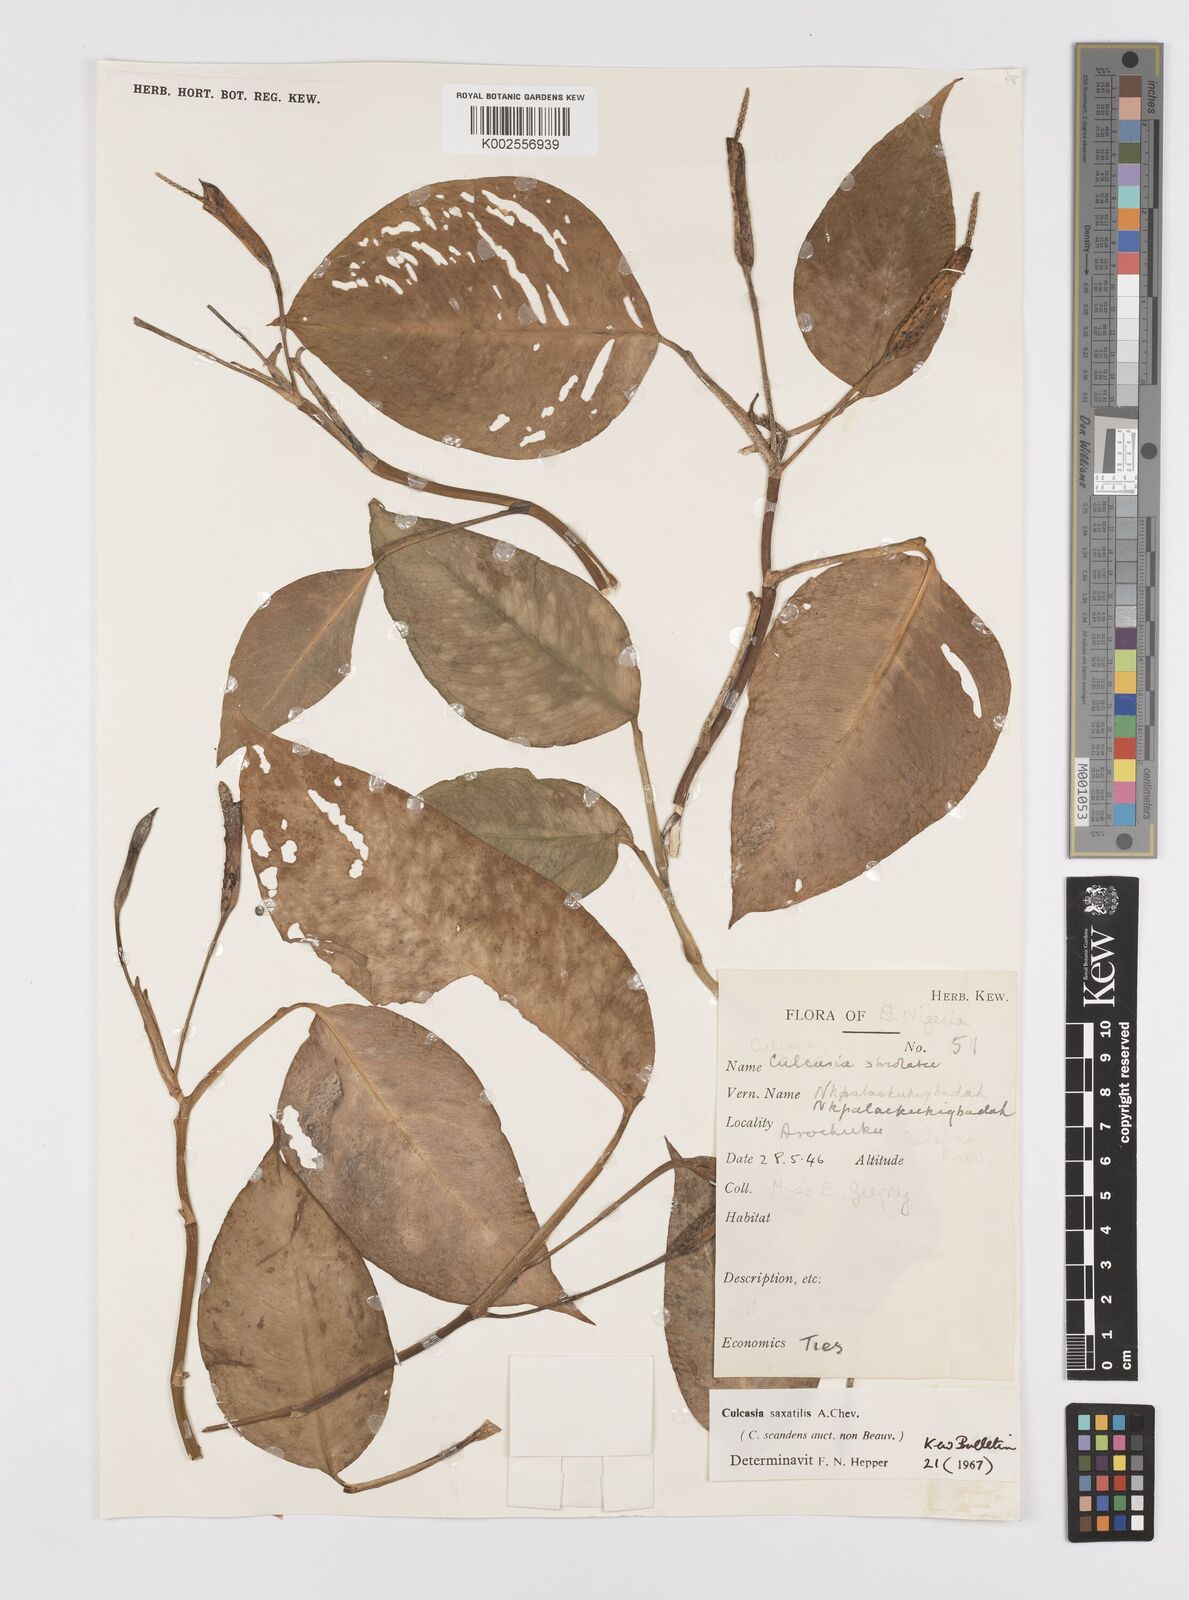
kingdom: Plantae
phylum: Tracheophyta
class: Liliopsida
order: Alismatales
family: Araceae
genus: Culcasia
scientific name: Culcasia scandens
